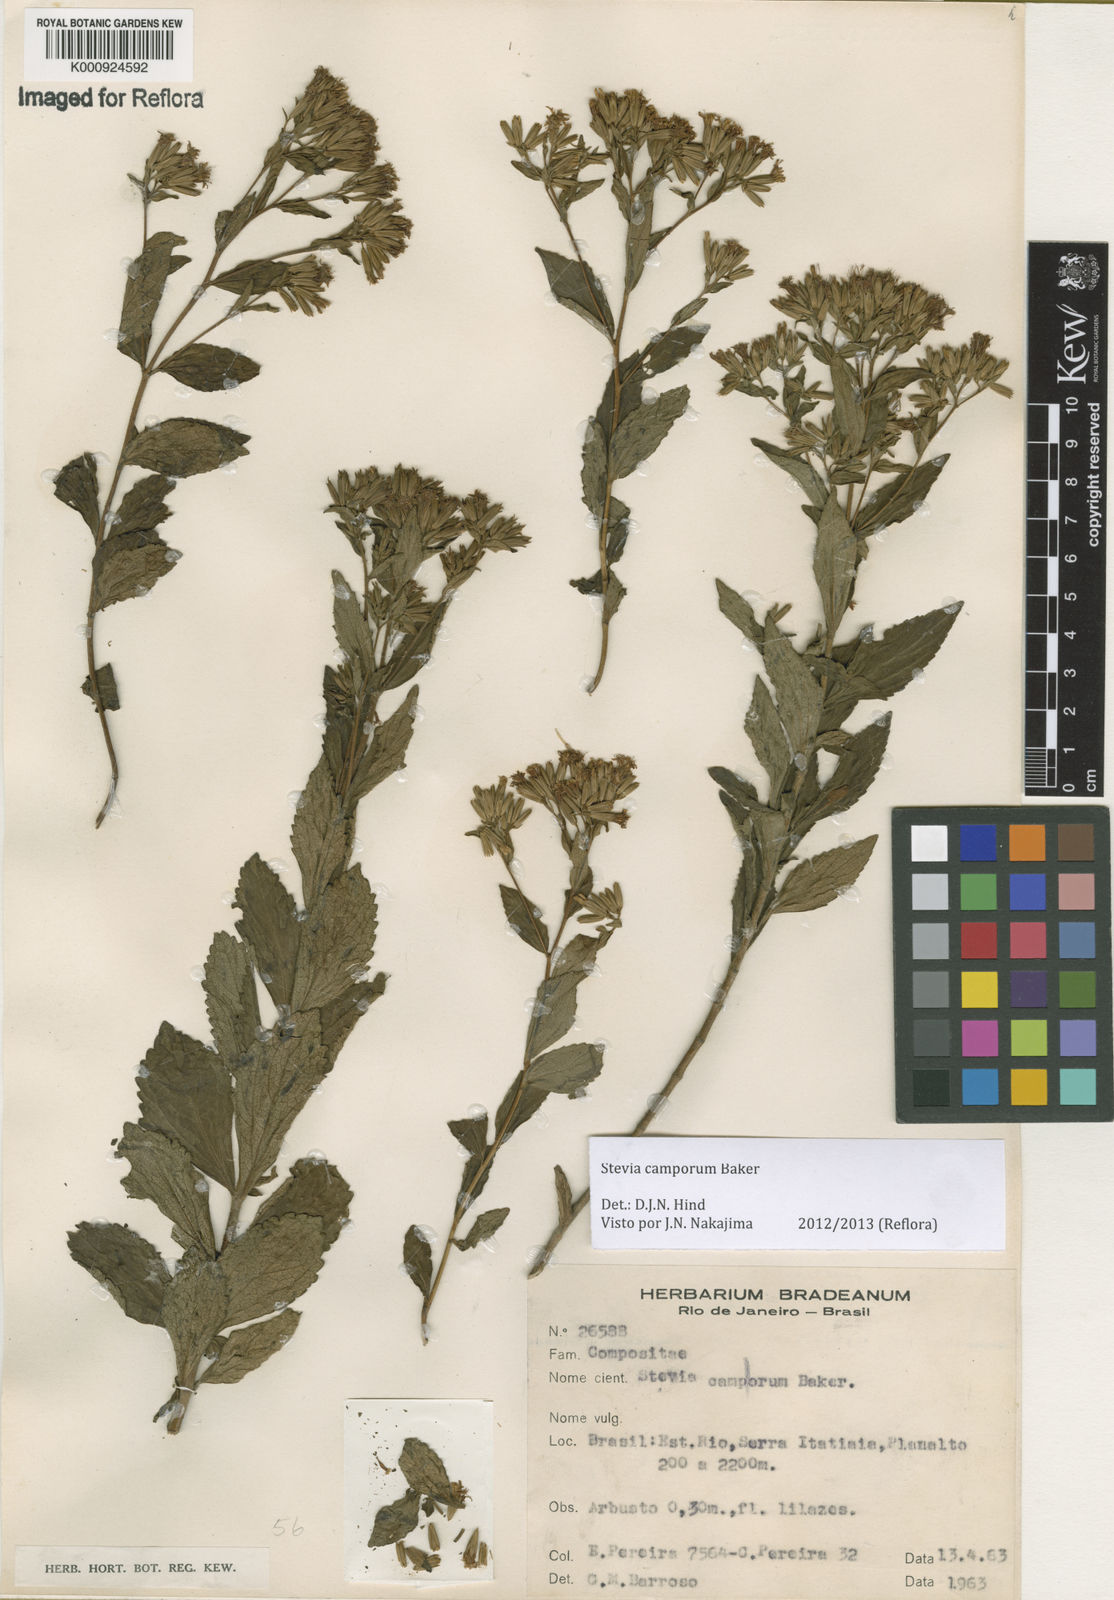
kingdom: Plantae
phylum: Tracheophyta
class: Magnoliopsida
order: Asterales
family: Asteraceae
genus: Stevia
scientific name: Stevia camporum
